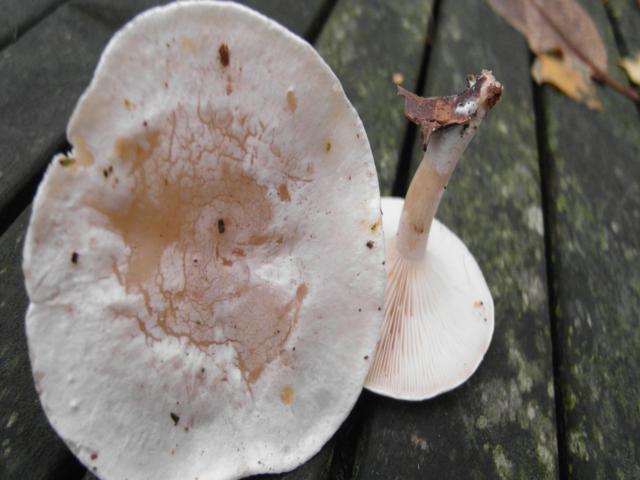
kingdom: Fungi
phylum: Basidiomycota
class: Agaricomycetes
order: Agaricales
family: Tricholomataceae
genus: Clitocybe
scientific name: Clitocybe phyllophila
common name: løv-tragthat
